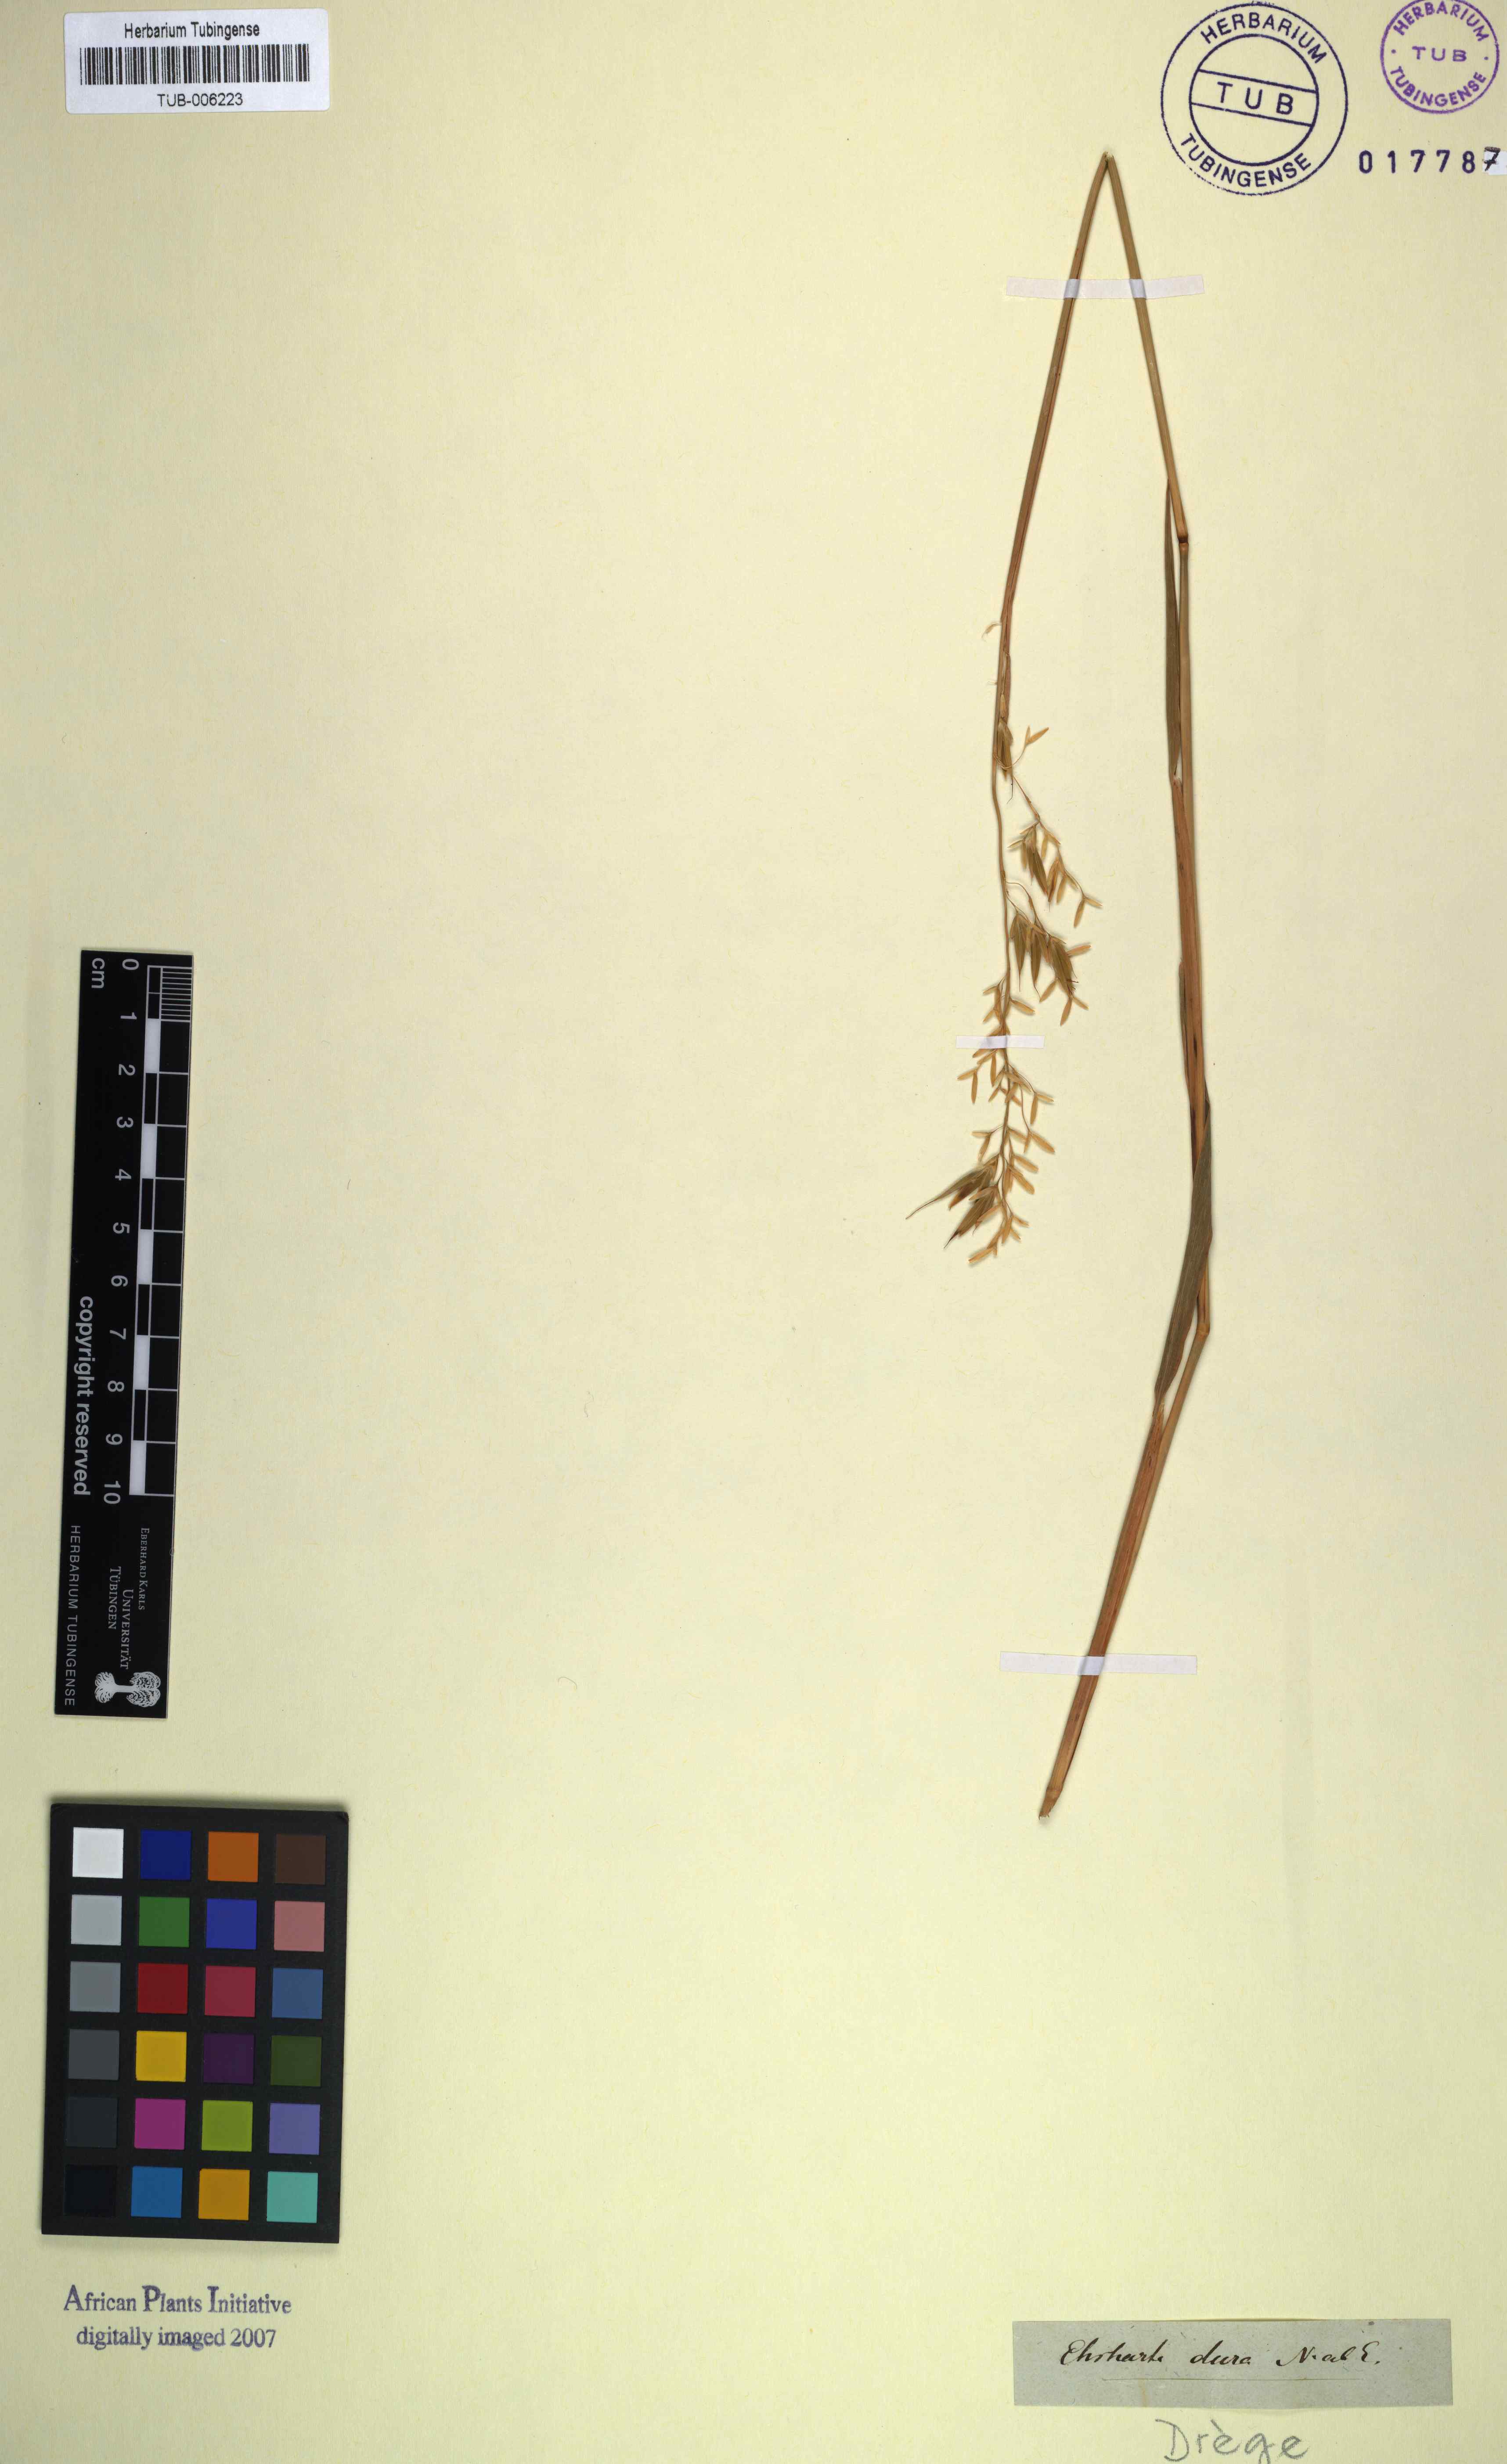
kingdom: Plantae
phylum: Tracheophyta
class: Liliopsida
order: Poales
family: Poaceae
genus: Ehrharta
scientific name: Ehrharta dura
